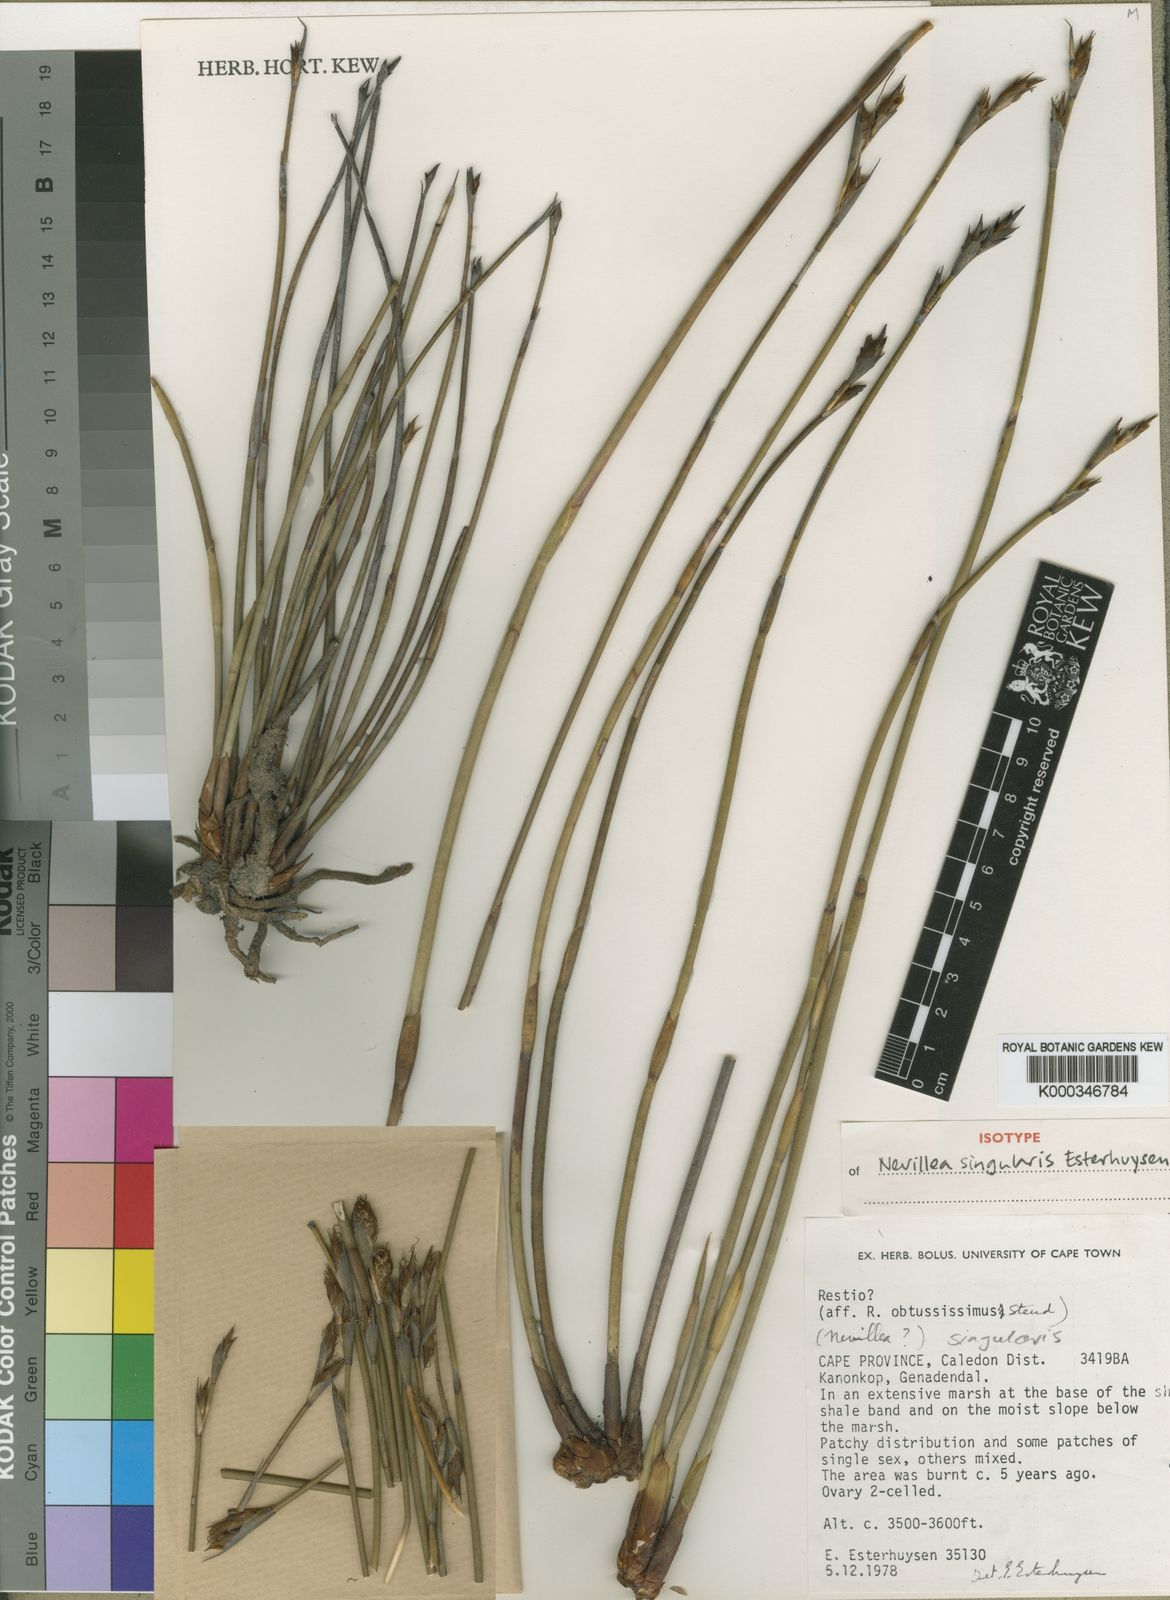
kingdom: Plantae
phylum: Tracheophyta
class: Liliopsida
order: Poales
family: Restionaceae
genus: Nevillea
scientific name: Nevillea singularis
